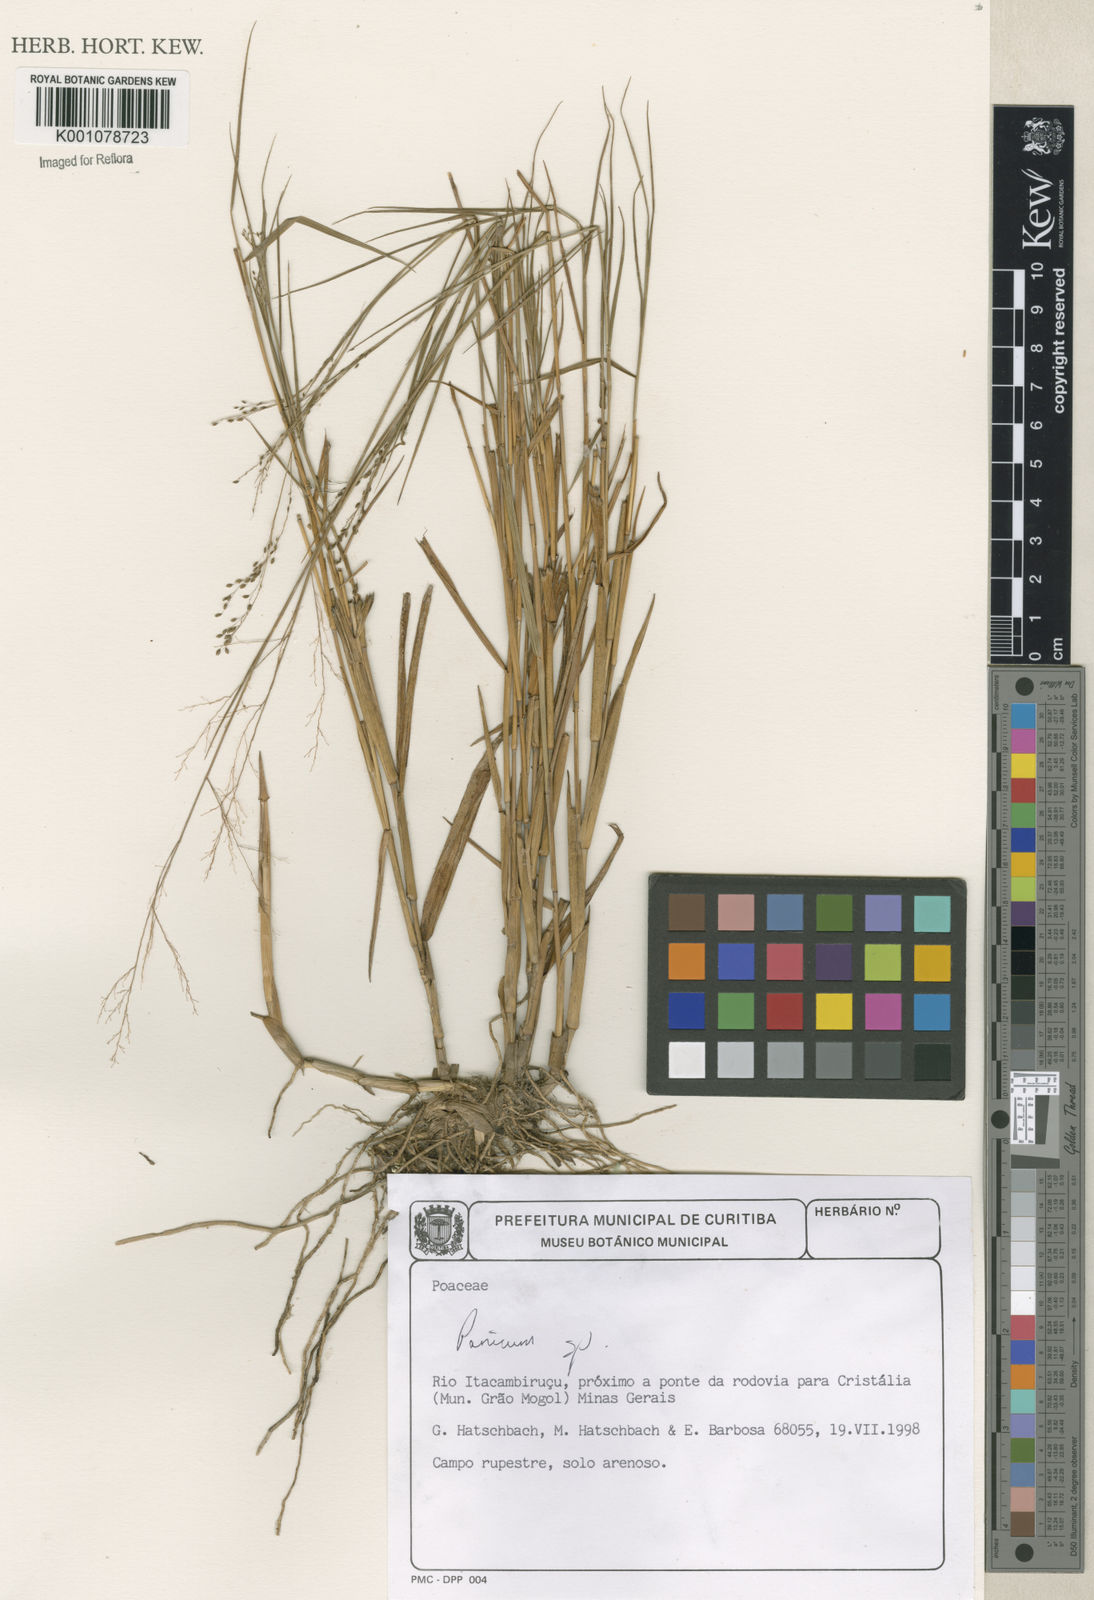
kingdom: Plantae
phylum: Tracheophyta
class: Liliopsida
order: Poales
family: Poaceae
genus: Panicum
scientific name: Panicum
